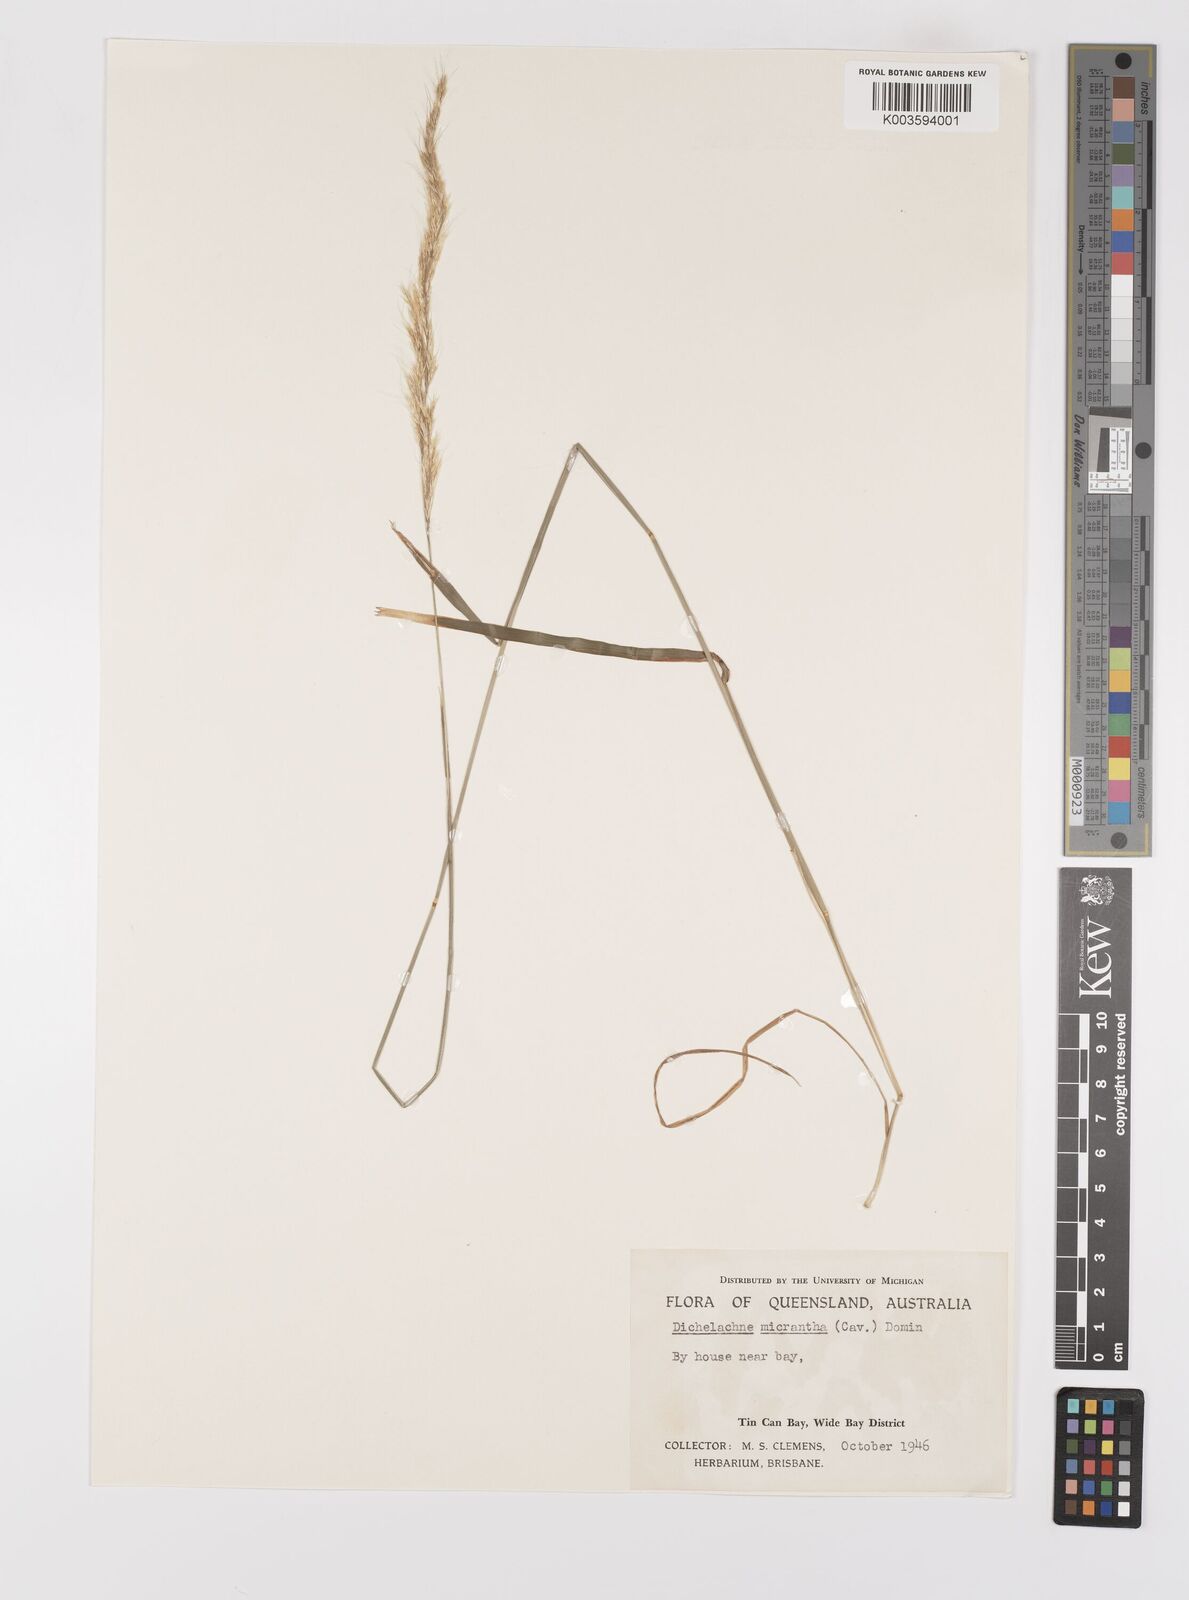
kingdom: Plantae
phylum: Tracheophyta
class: Liliopsida
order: Poales
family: Poaceae
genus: Dichelachne
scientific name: Dichelachne micrantha
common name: Plumegrass
